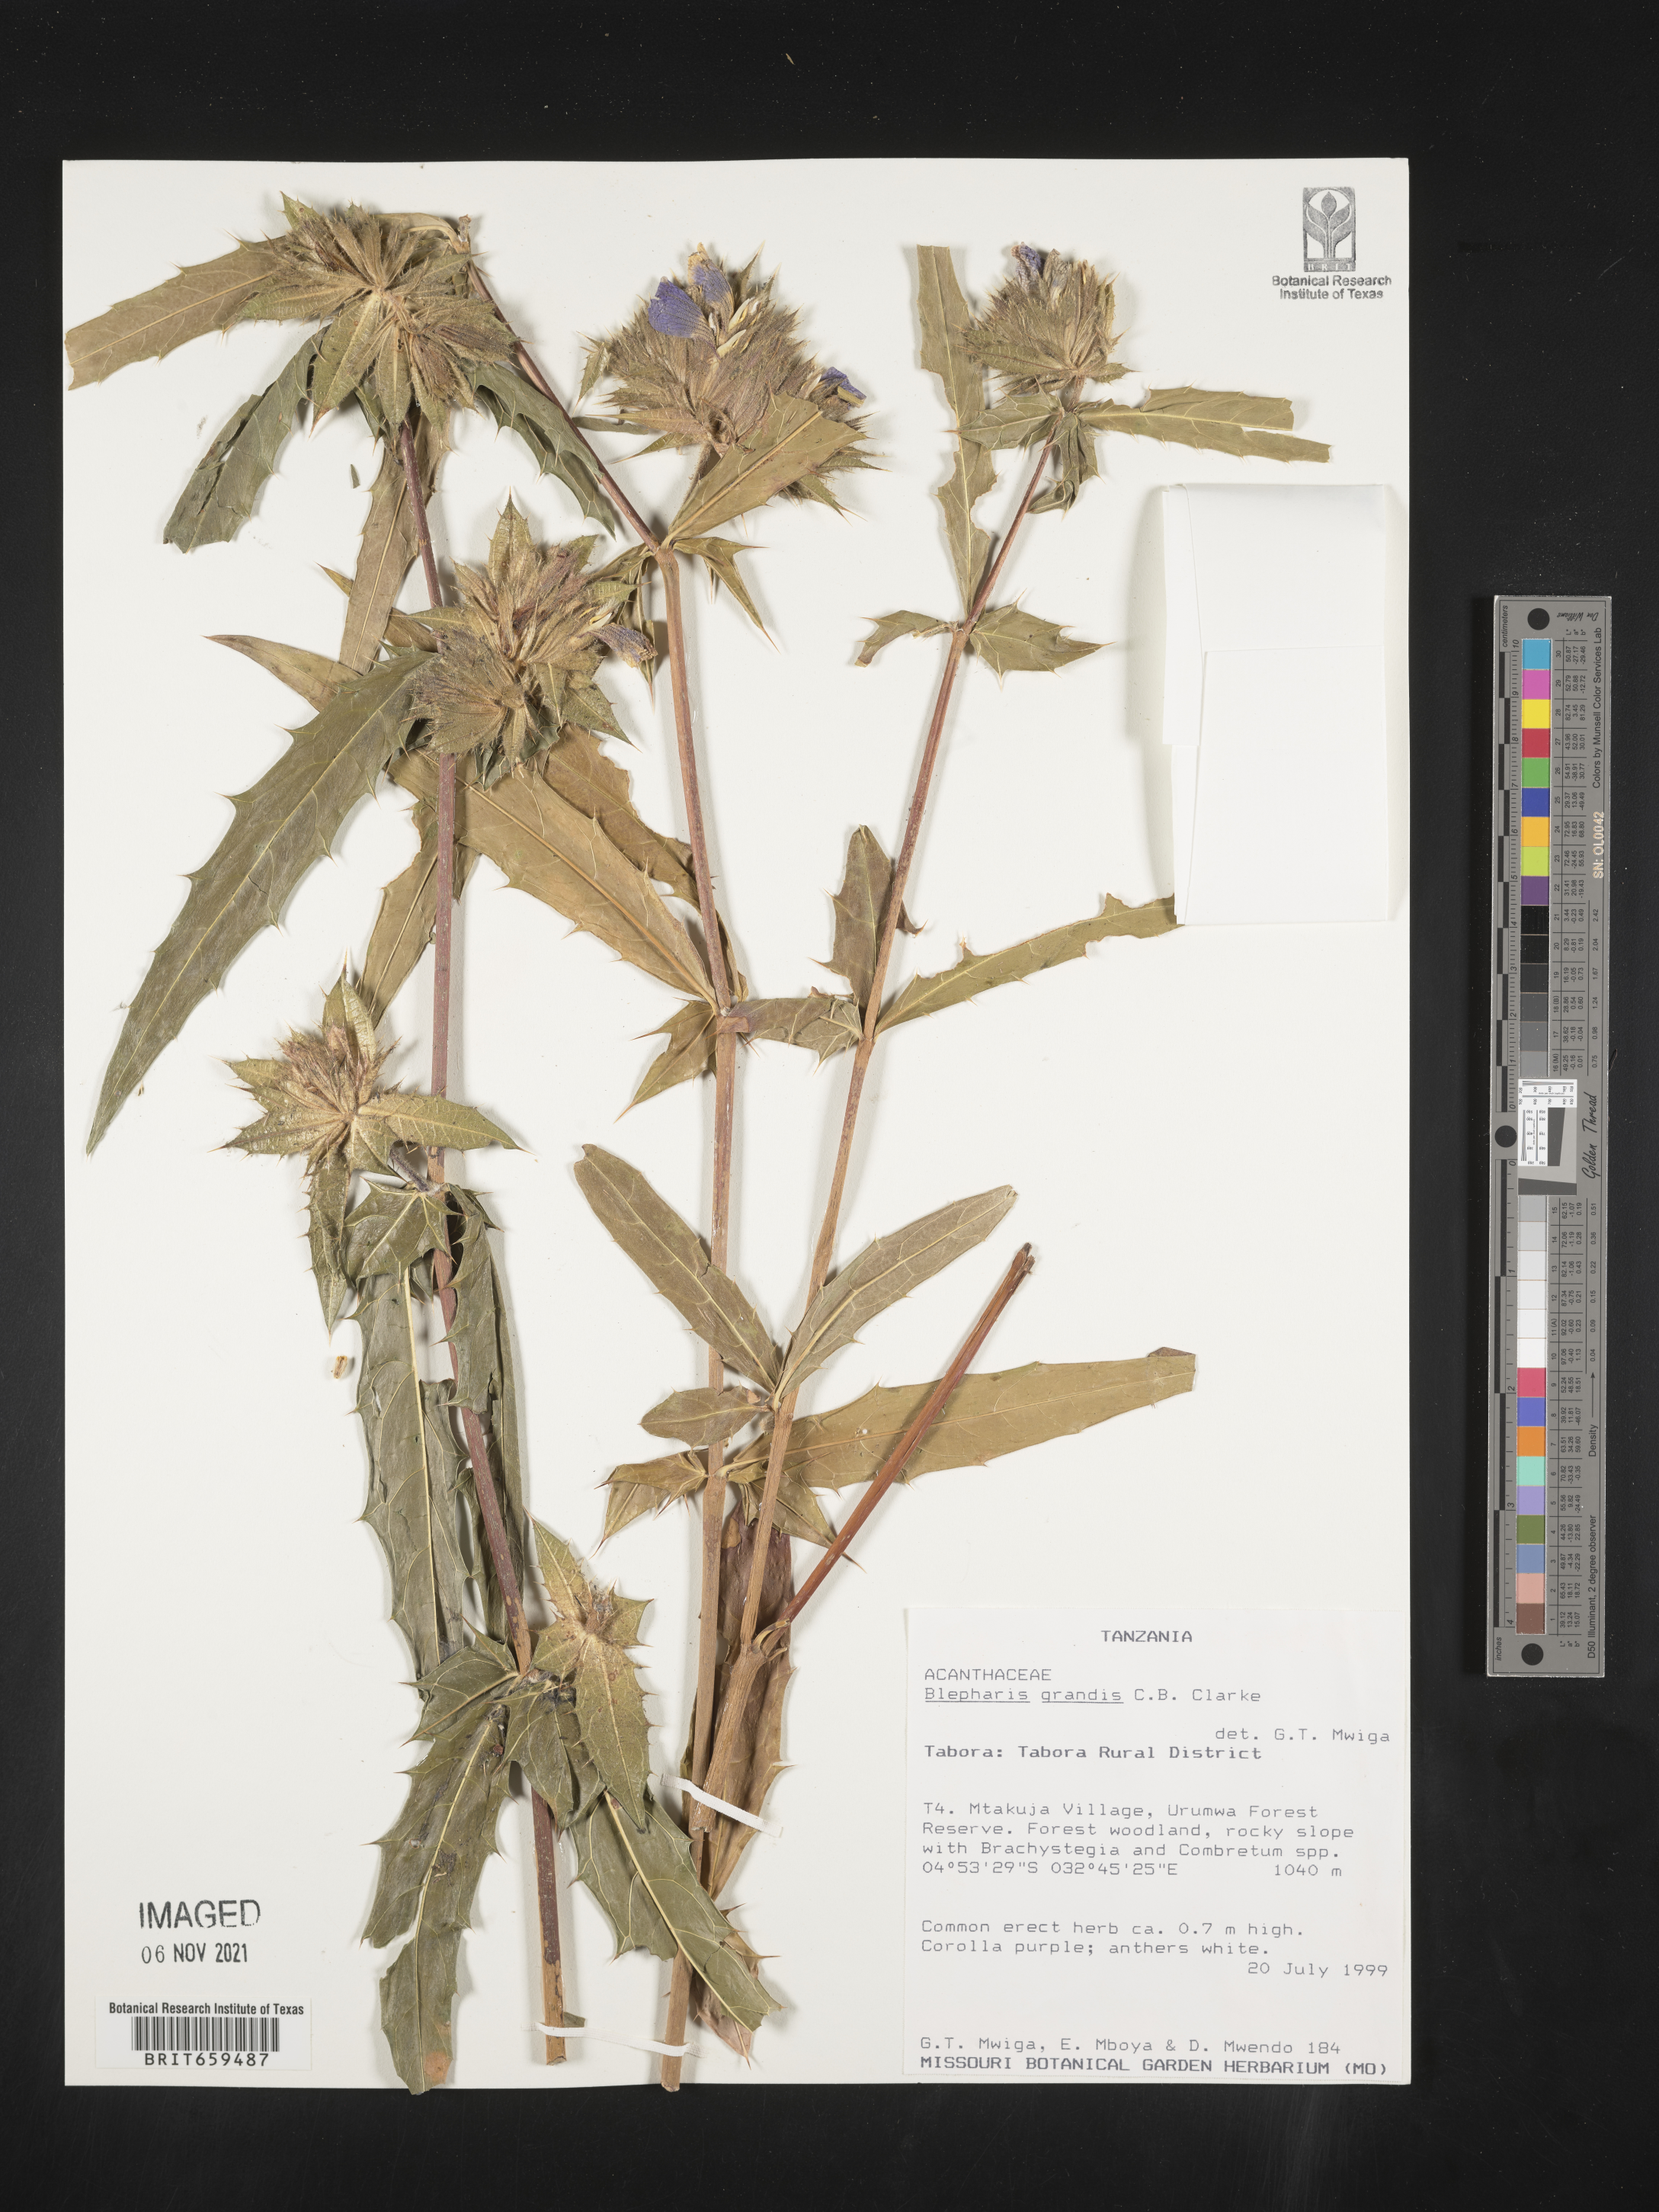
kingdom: Plantae
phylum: Tracheophyta
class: Magnoliopsida
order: Lamiales
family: Acanthaceae
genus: Blepharis
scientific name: Blepharis grandis
